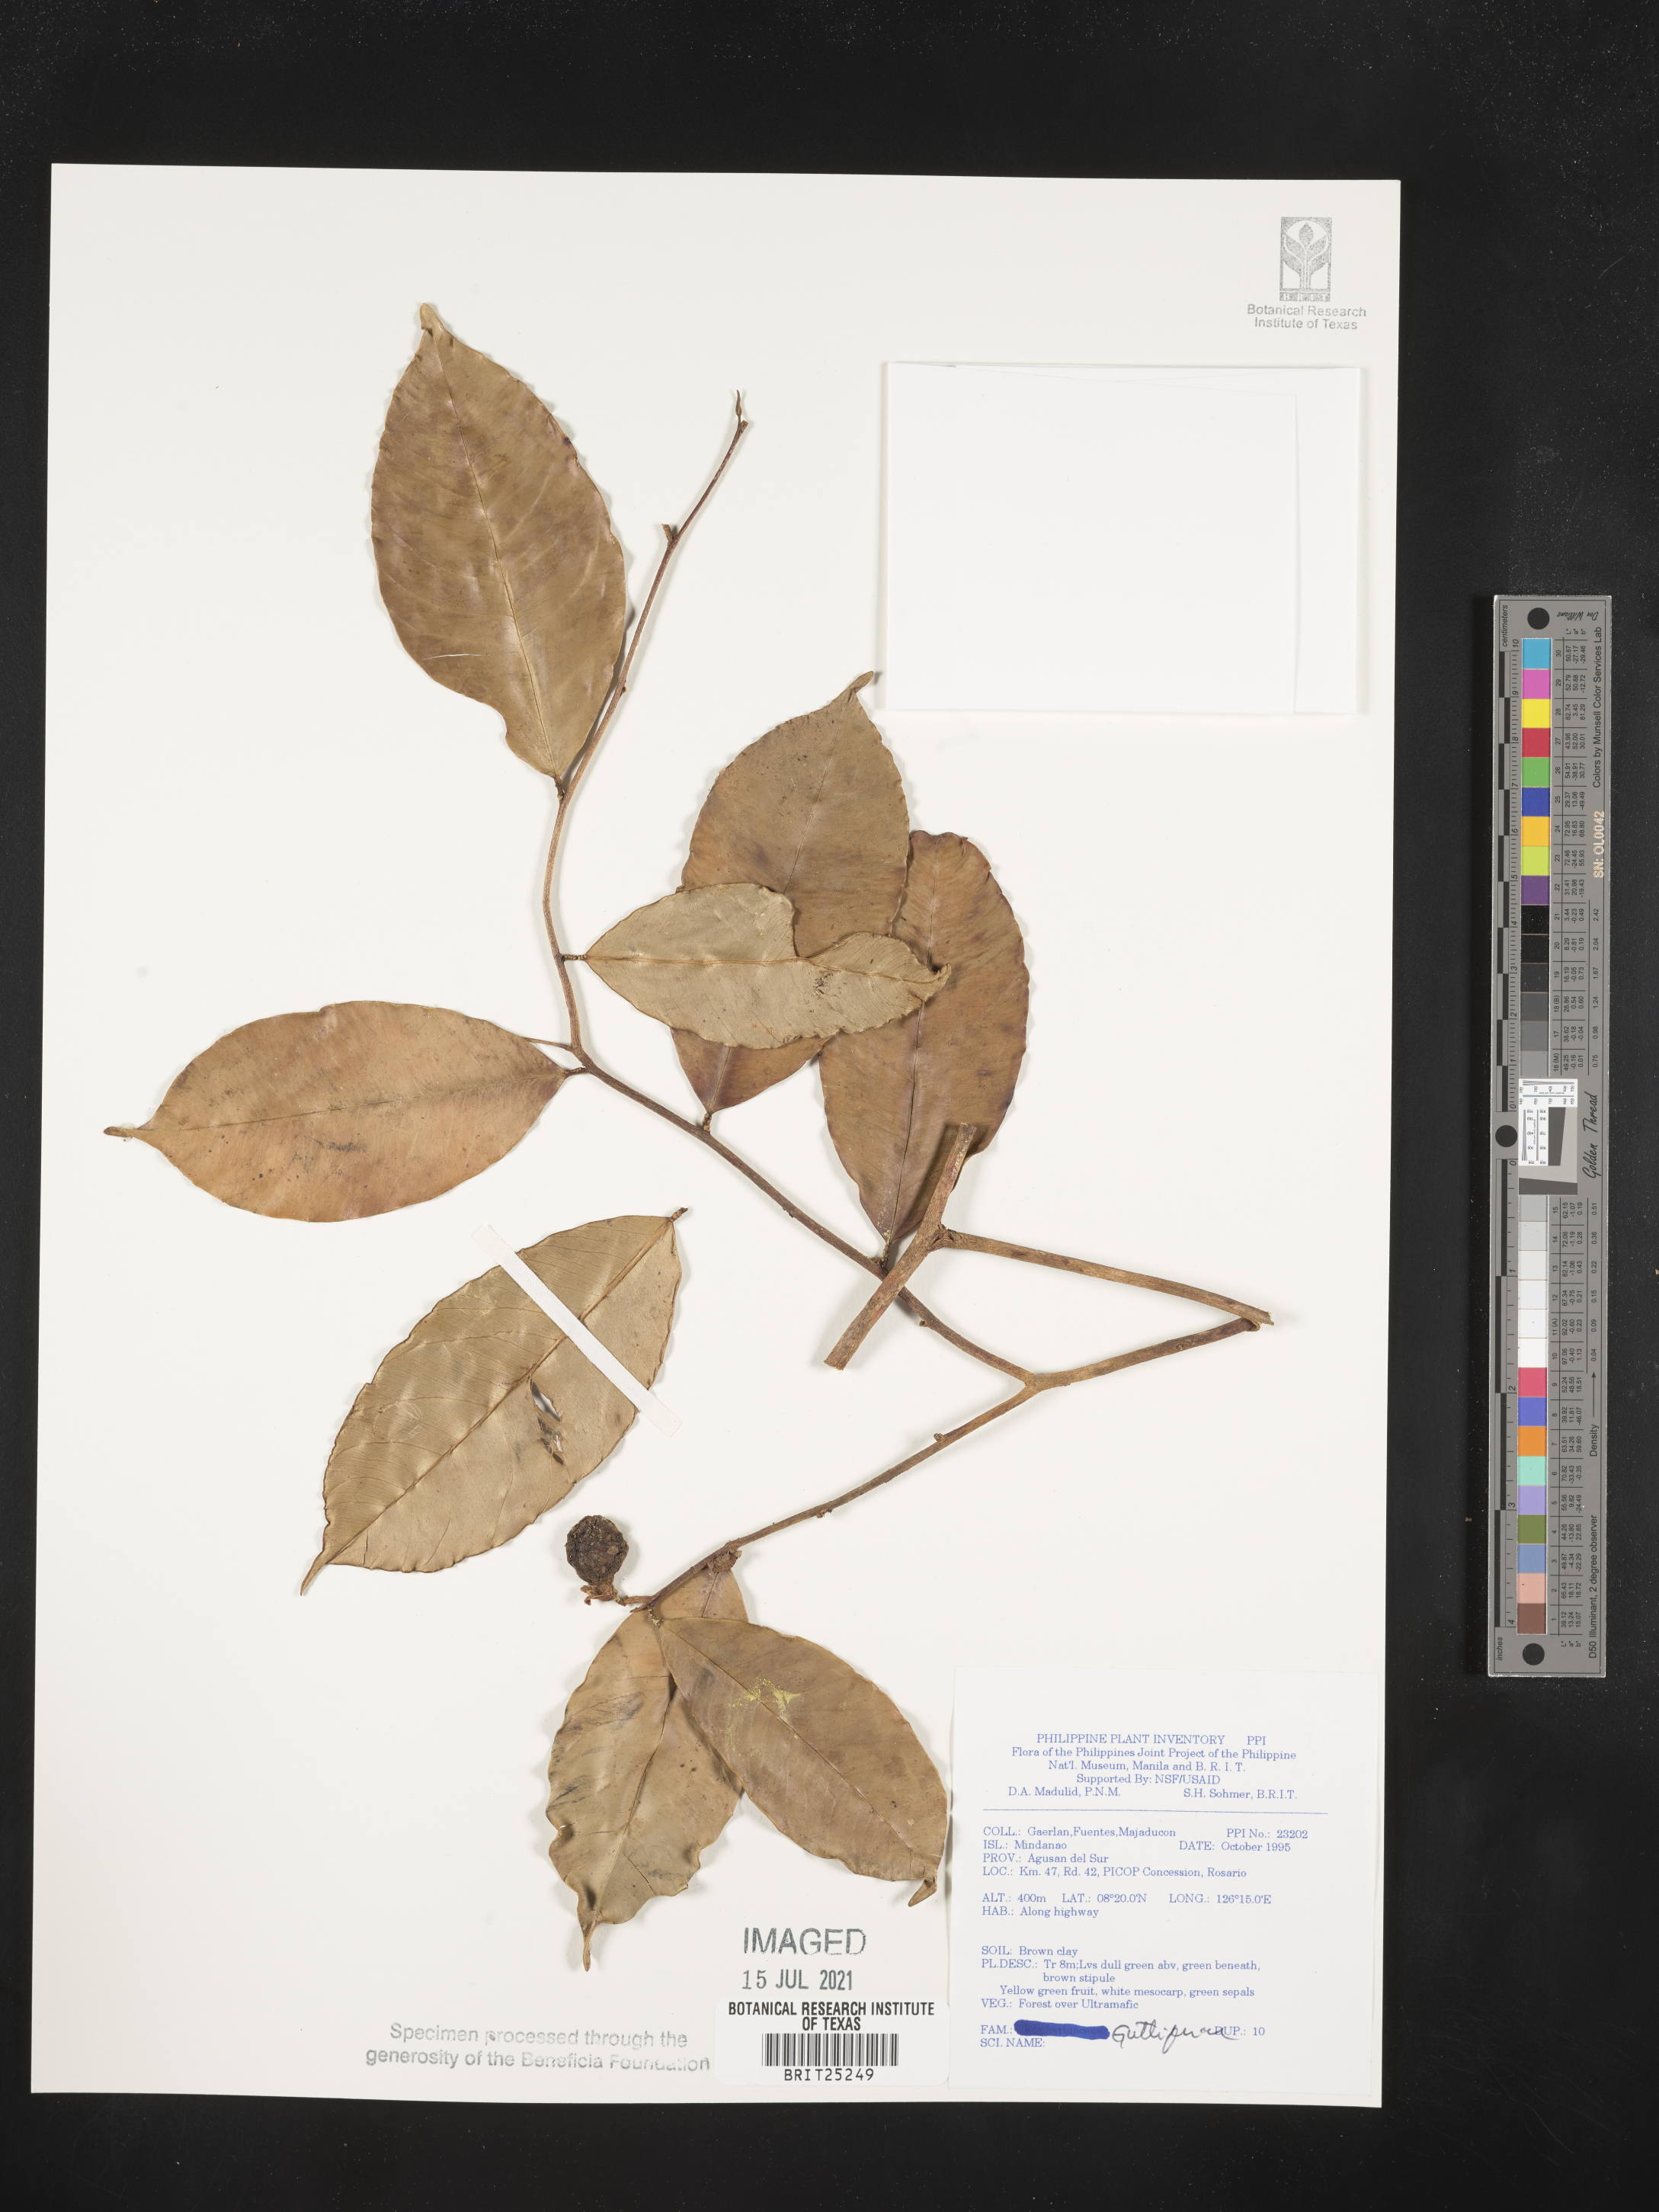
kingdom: Plantae
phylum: Tracheophyta
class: Magnoliopsida
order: Malpighiales
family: Hypericaceae
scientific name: Hypericaceae
